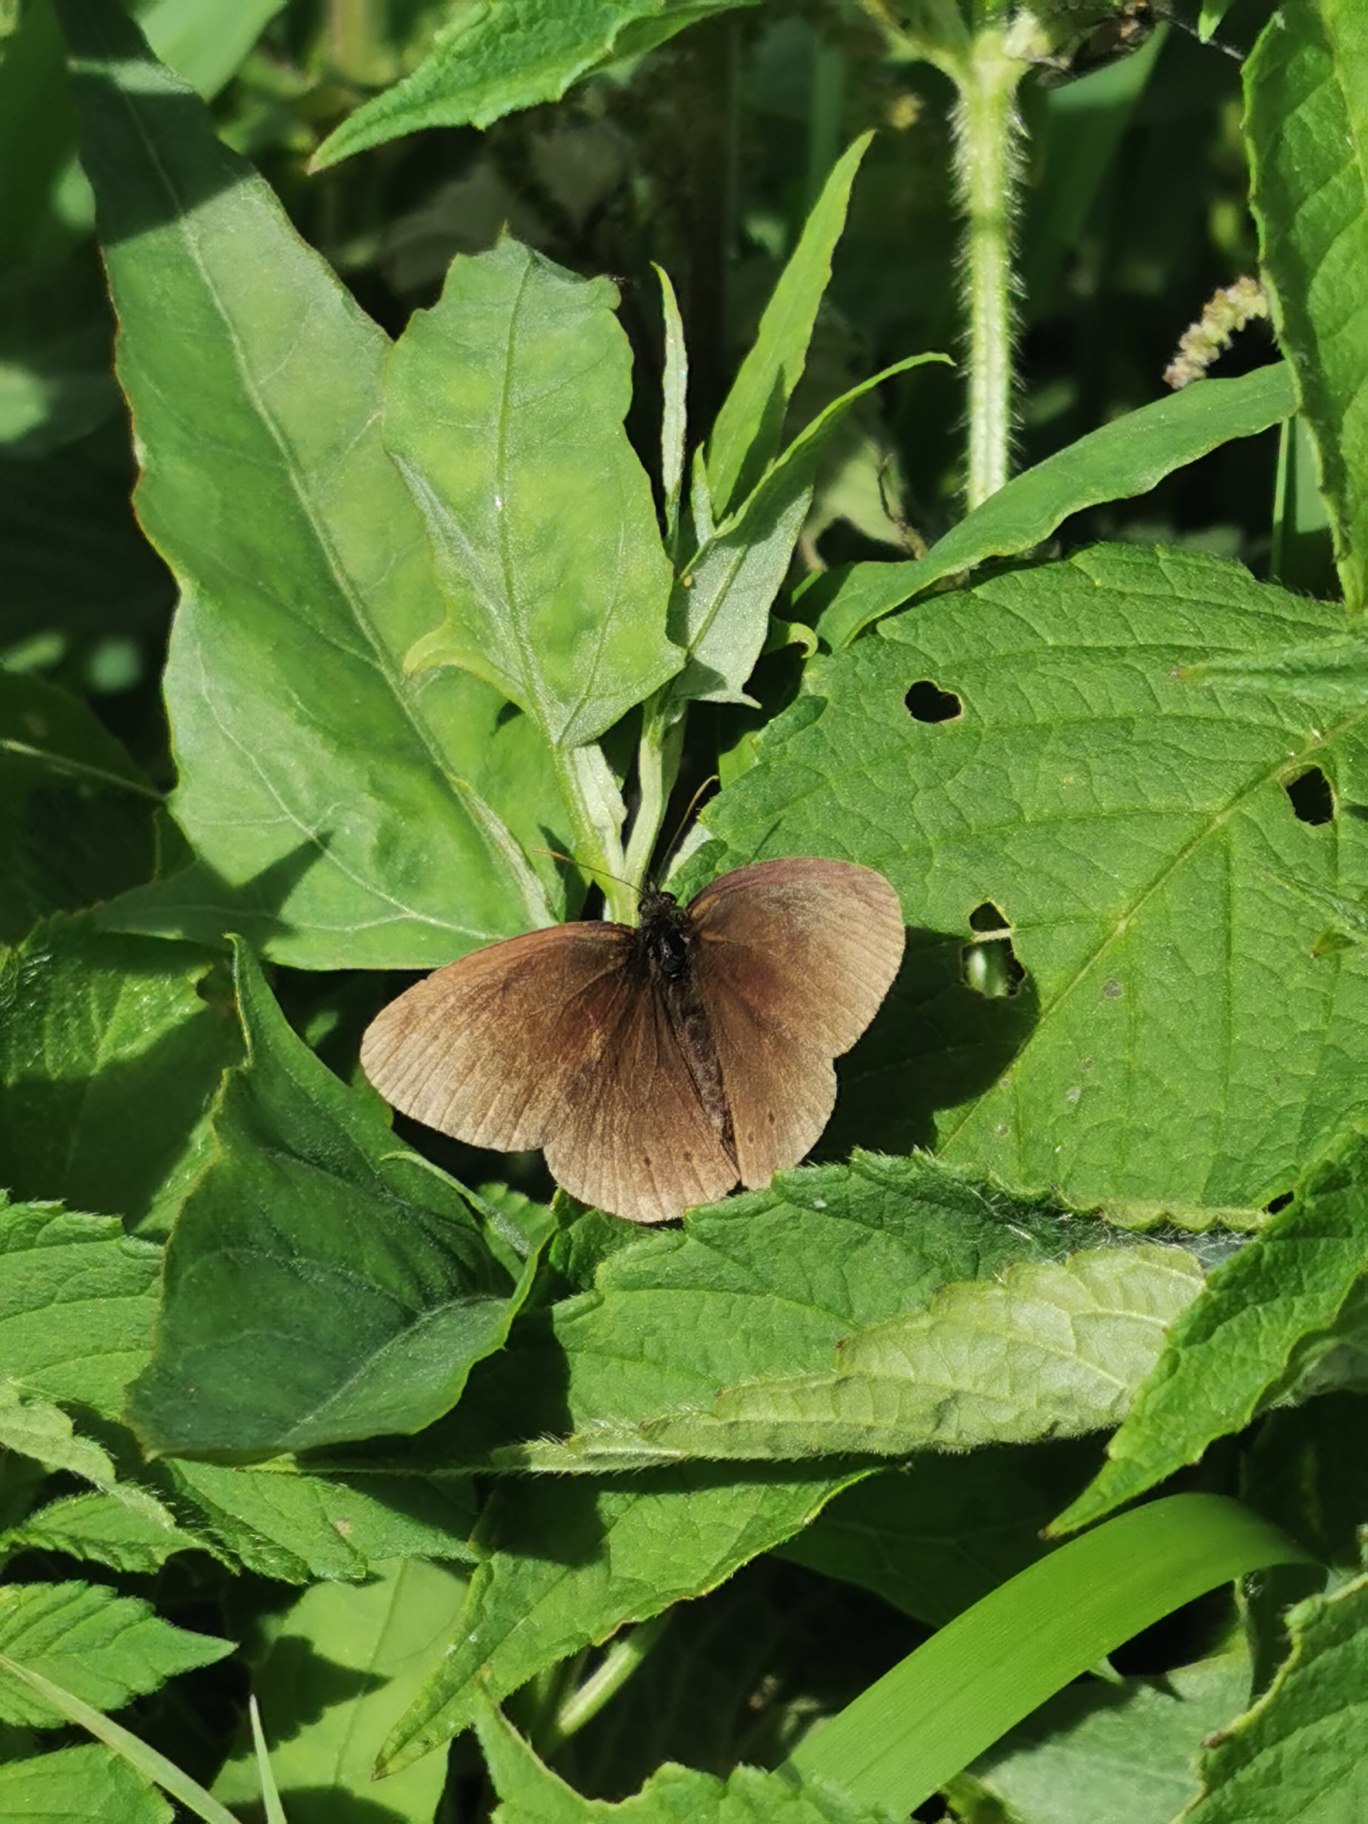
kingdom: Animalia
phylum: Arthropoda
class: Insecta
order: Lepidoptera
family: Nymphalidae
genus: Aphantopus
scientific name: Aphantopus hyperantus
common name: Engrandøje
